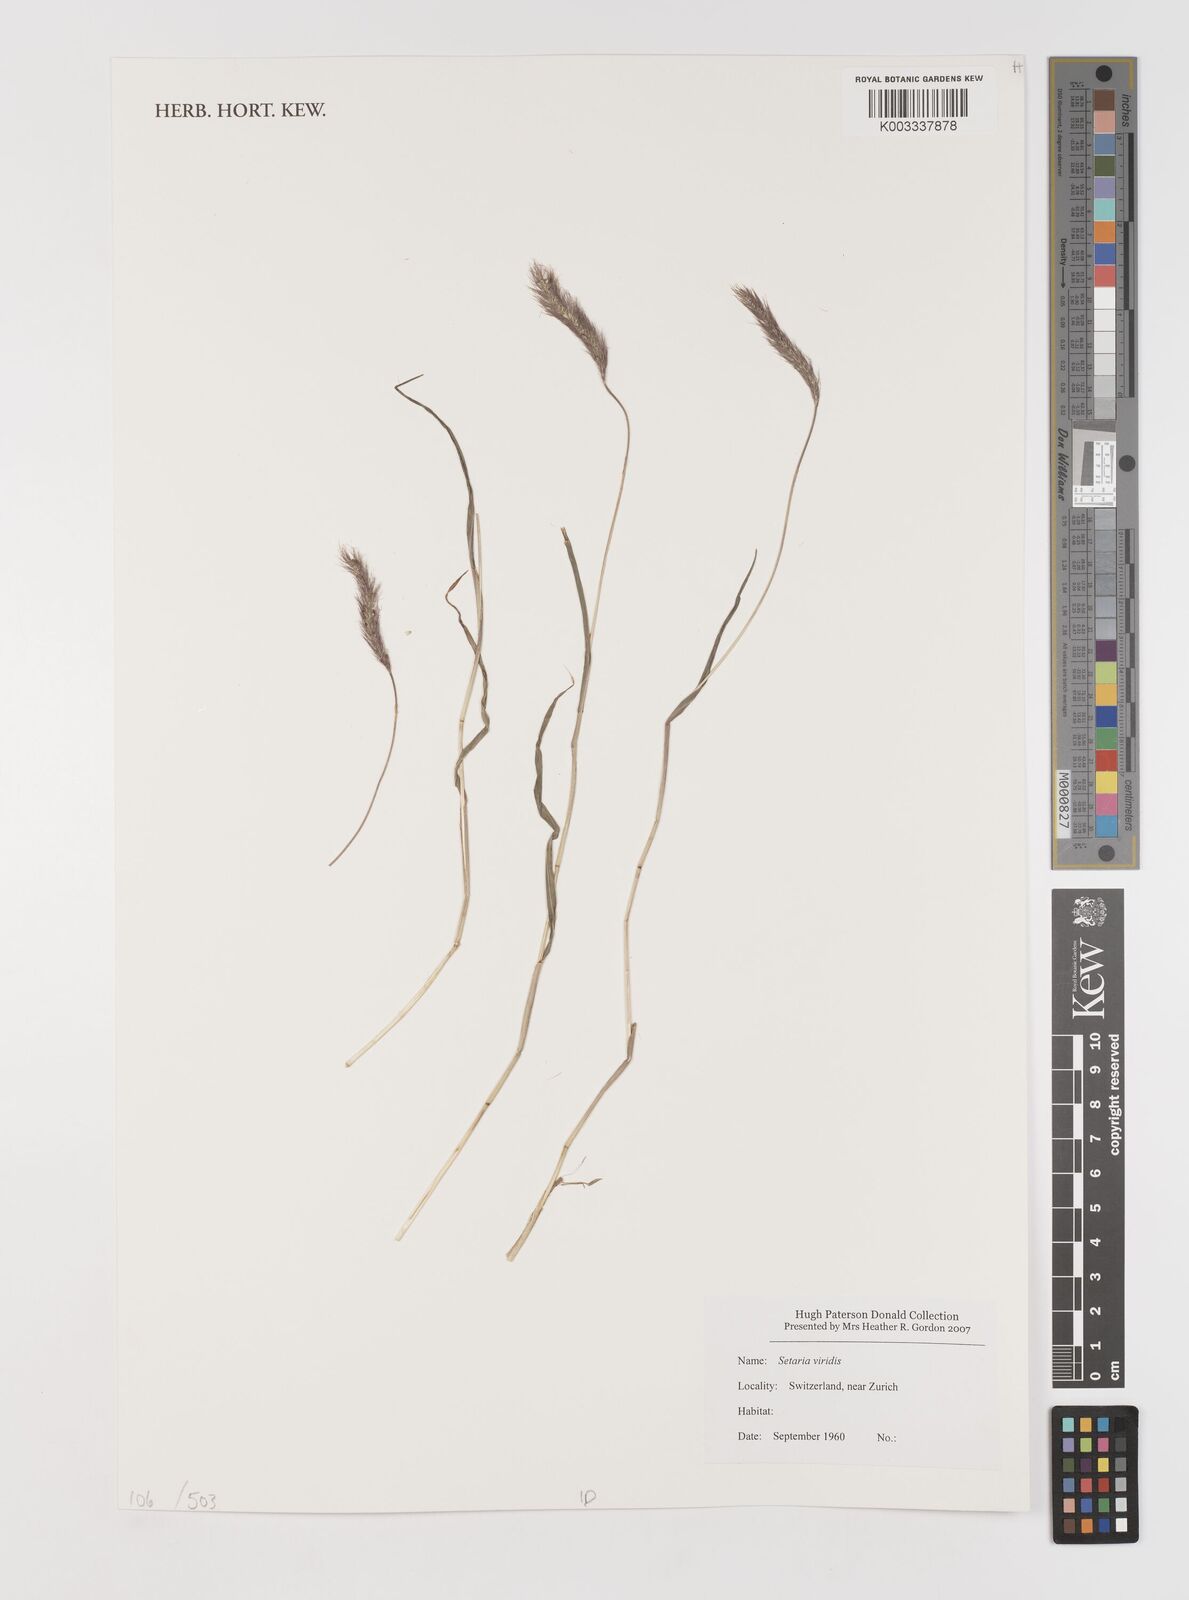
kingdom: Plantae
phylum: Tracheophyta
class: Liliopsida
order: Poales
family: Poaceae
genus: Setaria
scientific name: Setaria viridis
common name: Green bristlegrass
